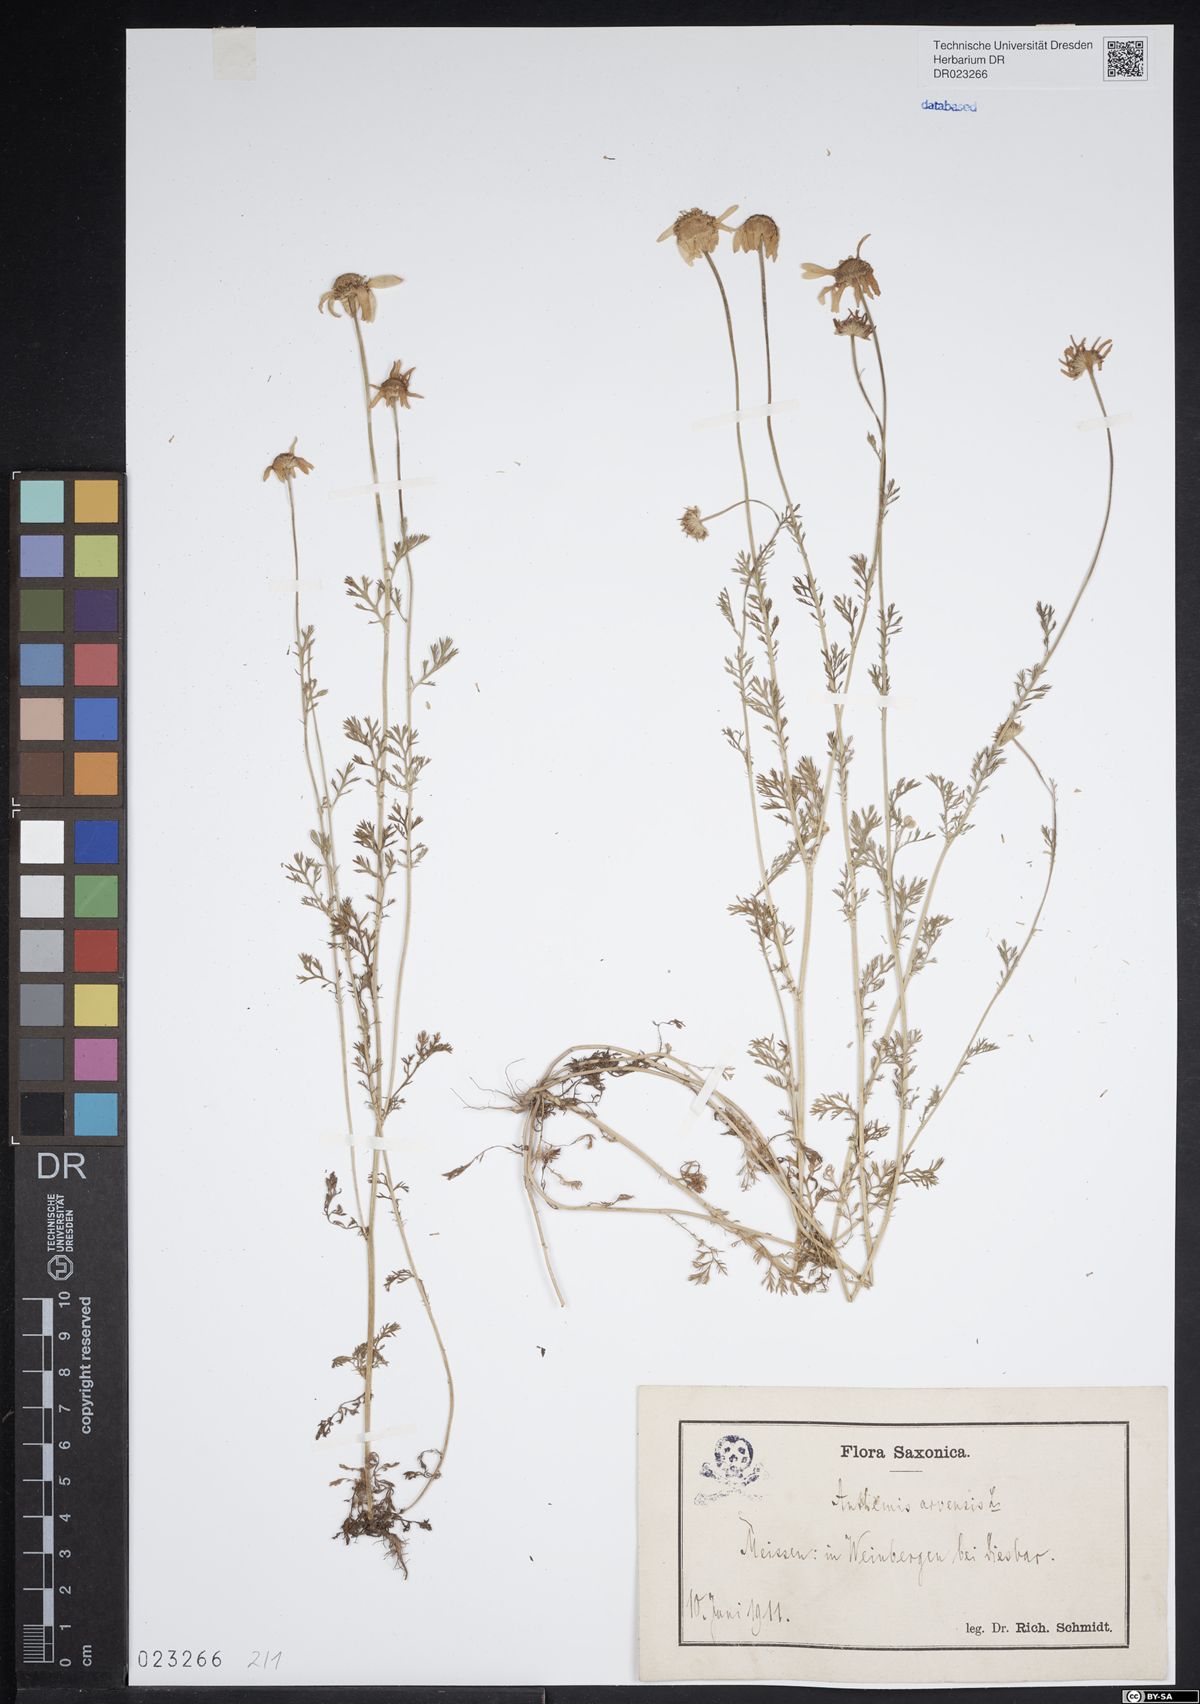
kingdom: Plantae
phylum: Tracheophyta
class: Magnoliopsida
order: Asterales
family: Asteraceae
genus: Anthemis
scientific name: Anthemis arvensis
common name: Corn chamomile
